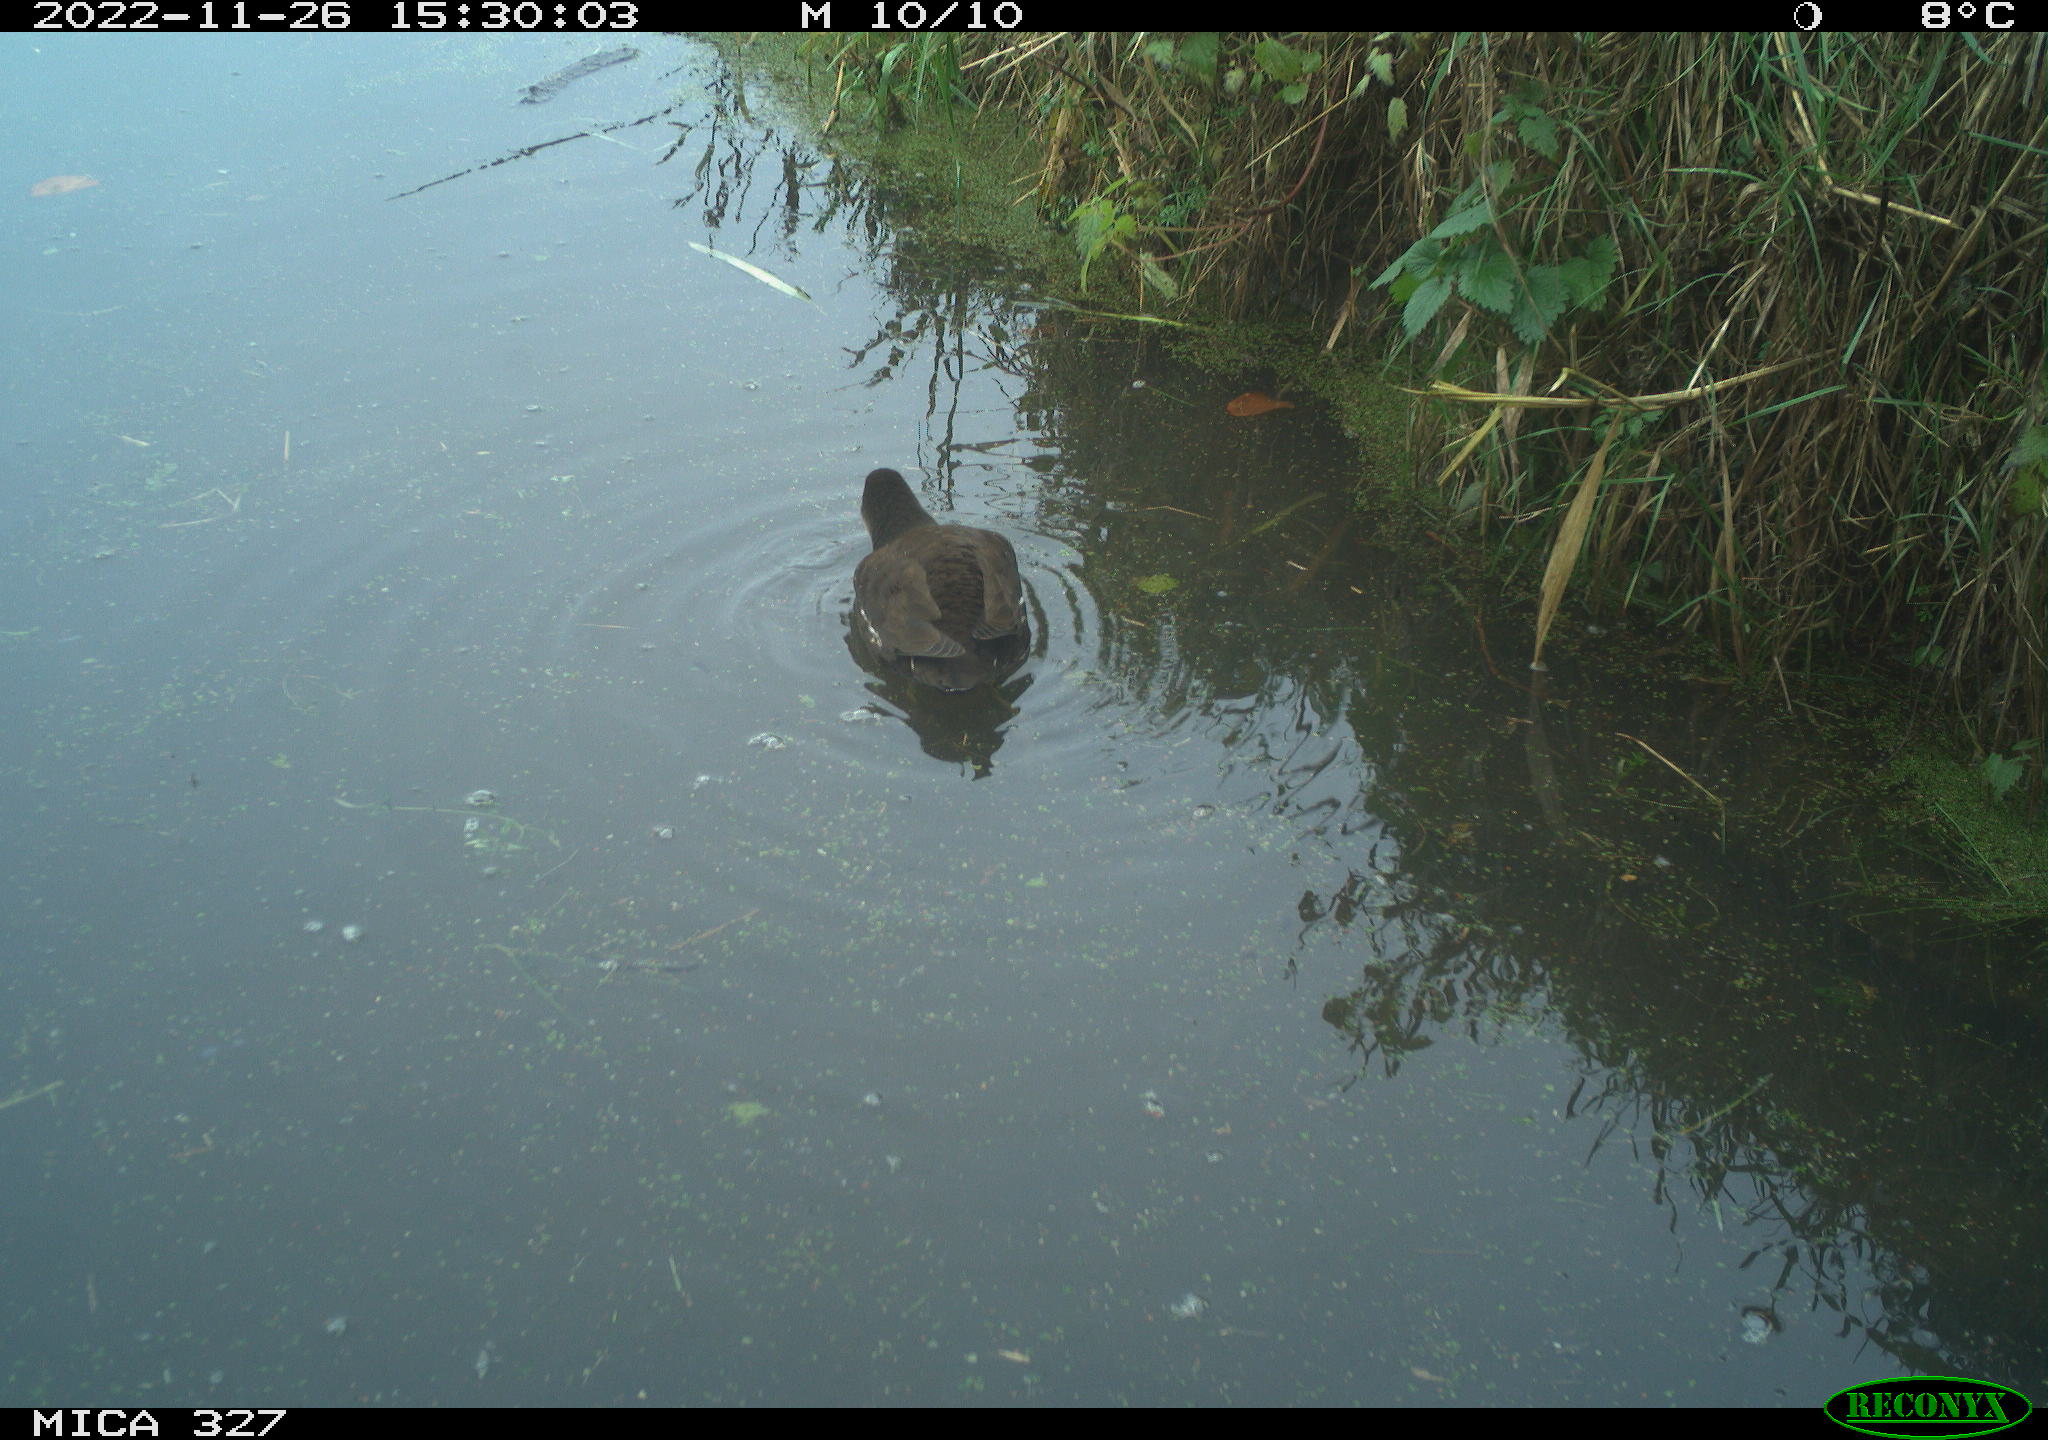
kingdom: Animalia
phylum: Chordata
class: Aves
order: Gruiformes
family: Rallidae
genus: Gallinula
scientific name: Gallinula chloropus
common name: Common moorhen
